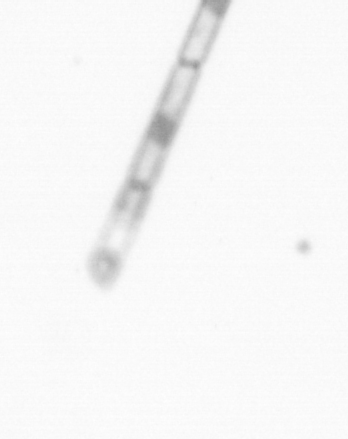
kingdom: Chromista
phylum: Ochrophyta
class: Bacillariophyceae
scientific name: Bacillariophyceae
